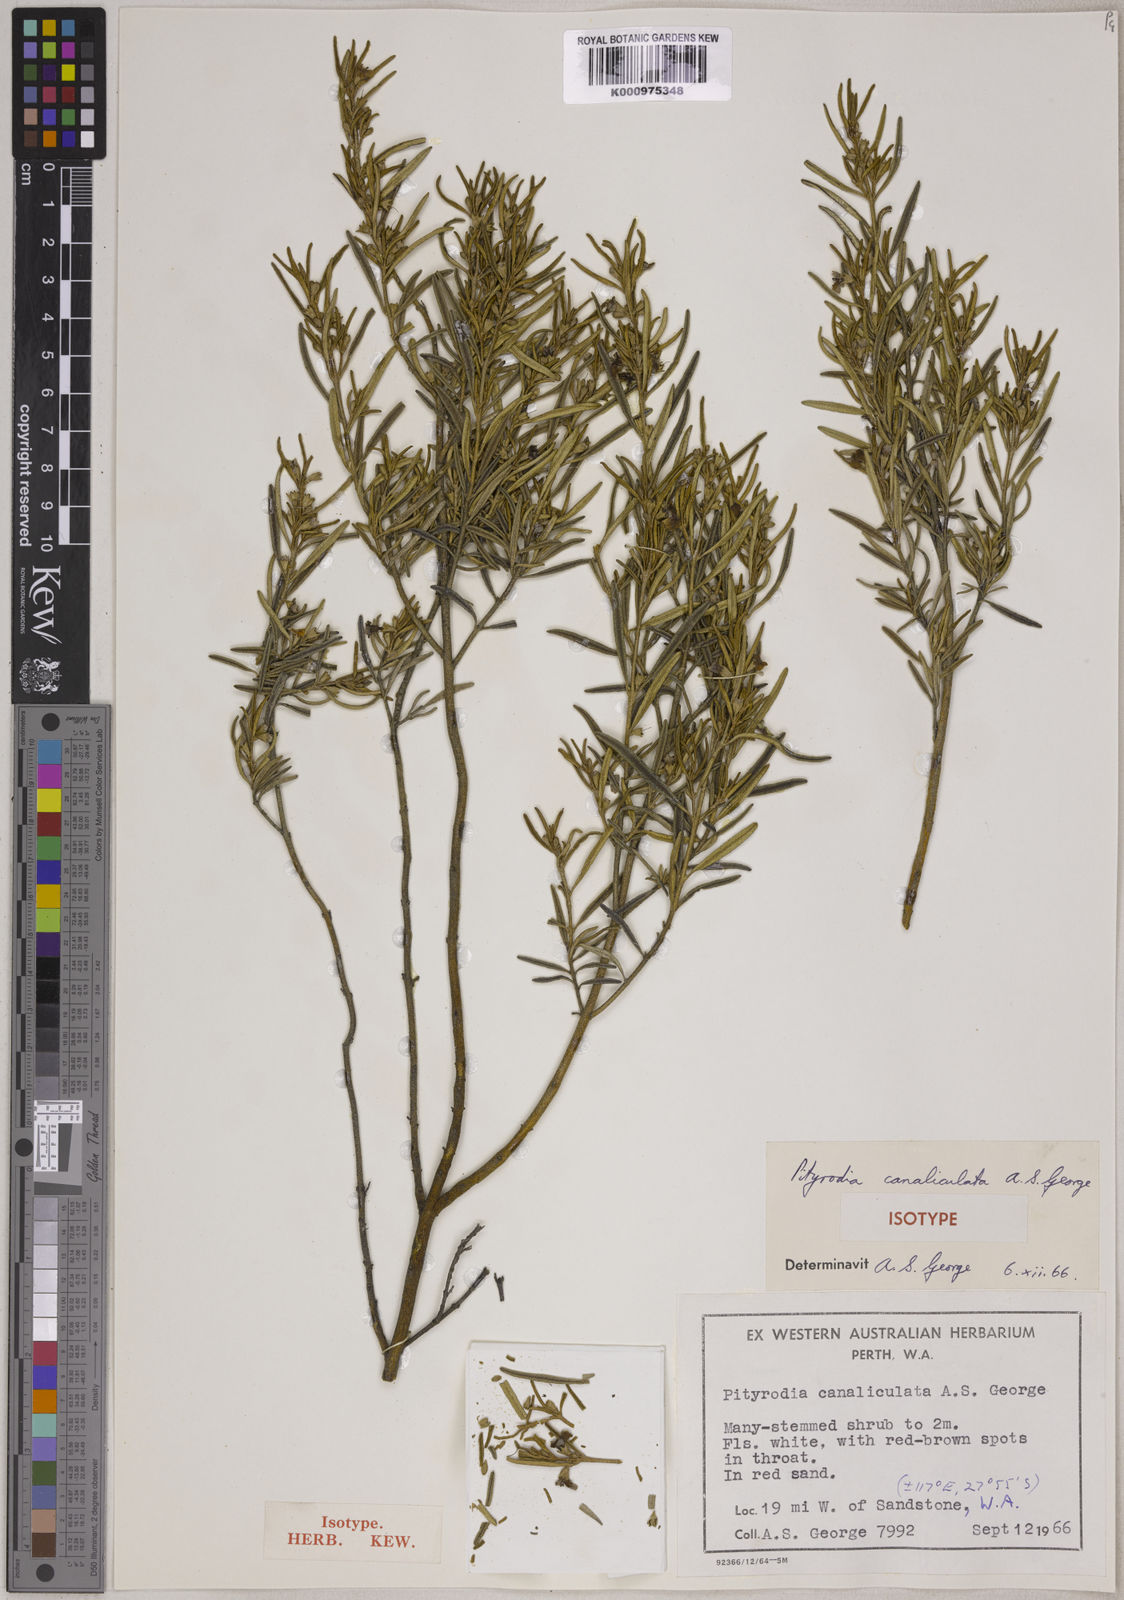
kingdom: Plantae
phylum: Tracheophyta
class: Magnoliopsida
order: Lamiales
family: Lamiaceae
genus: Pityrodia
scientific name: Pityrodia canaliculata
